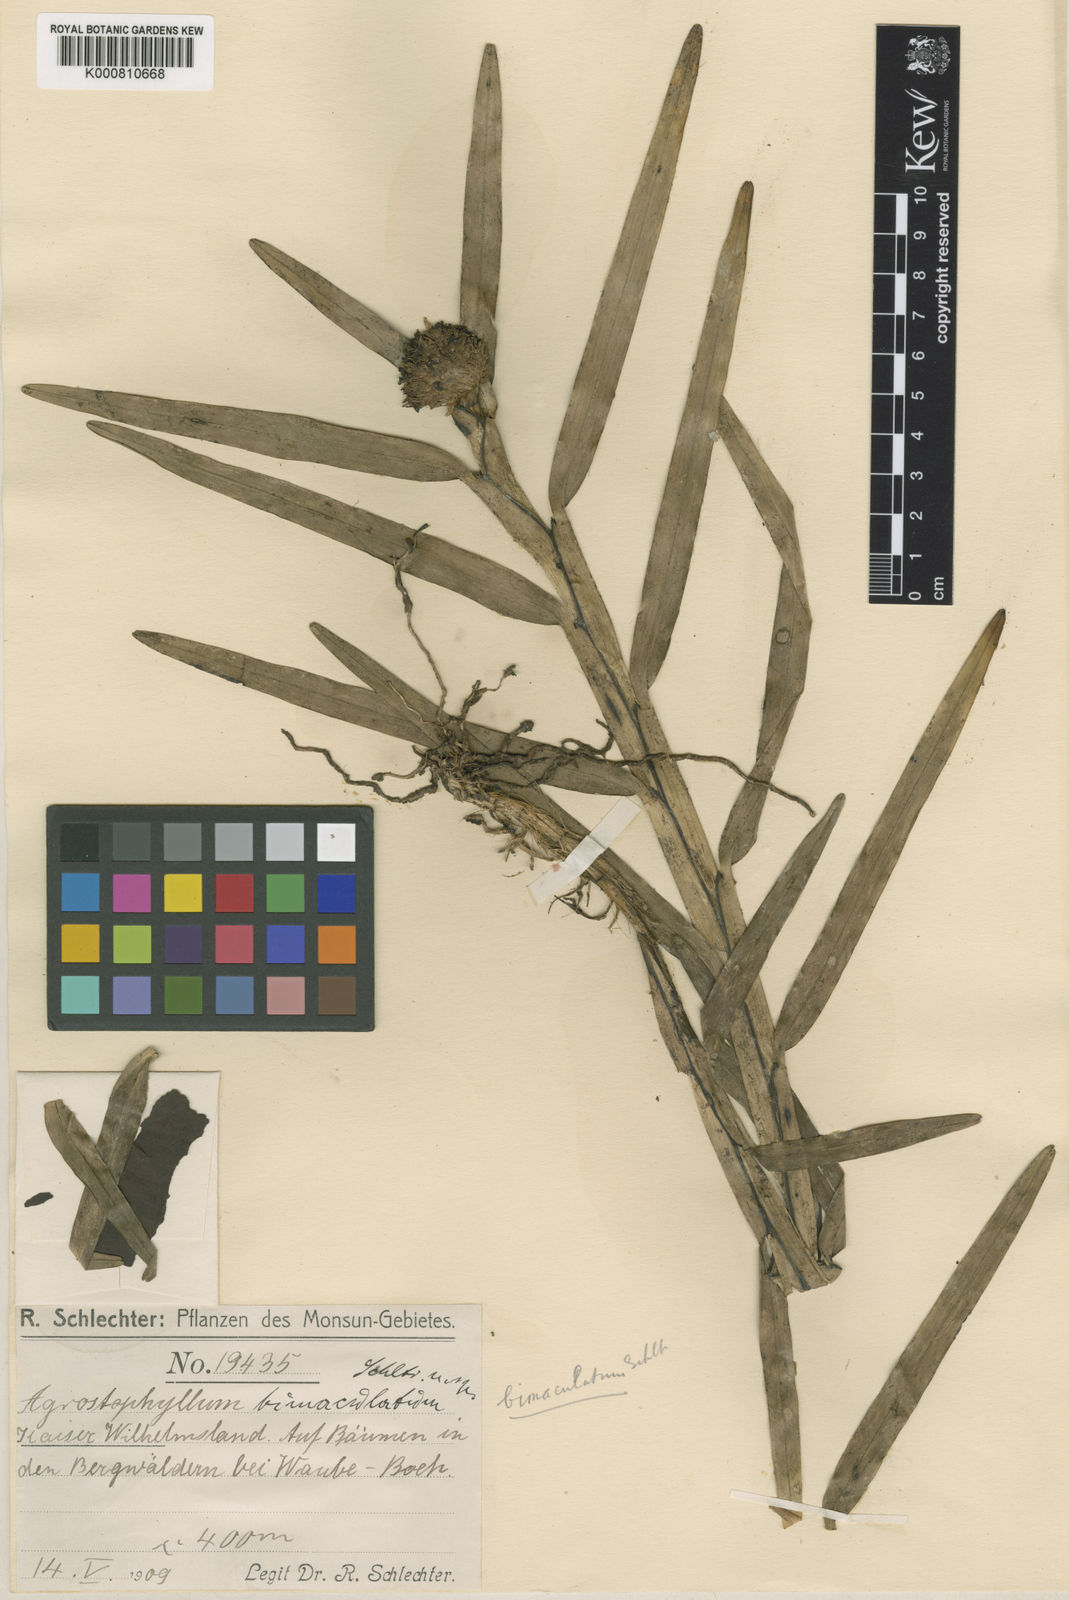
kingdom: Plantae
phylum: Tracheophyta
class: Liliopsida
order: Asparagales
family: Orchidaceae
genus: Agrostophyllum
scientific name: Agrostophyllum bimaculatum
